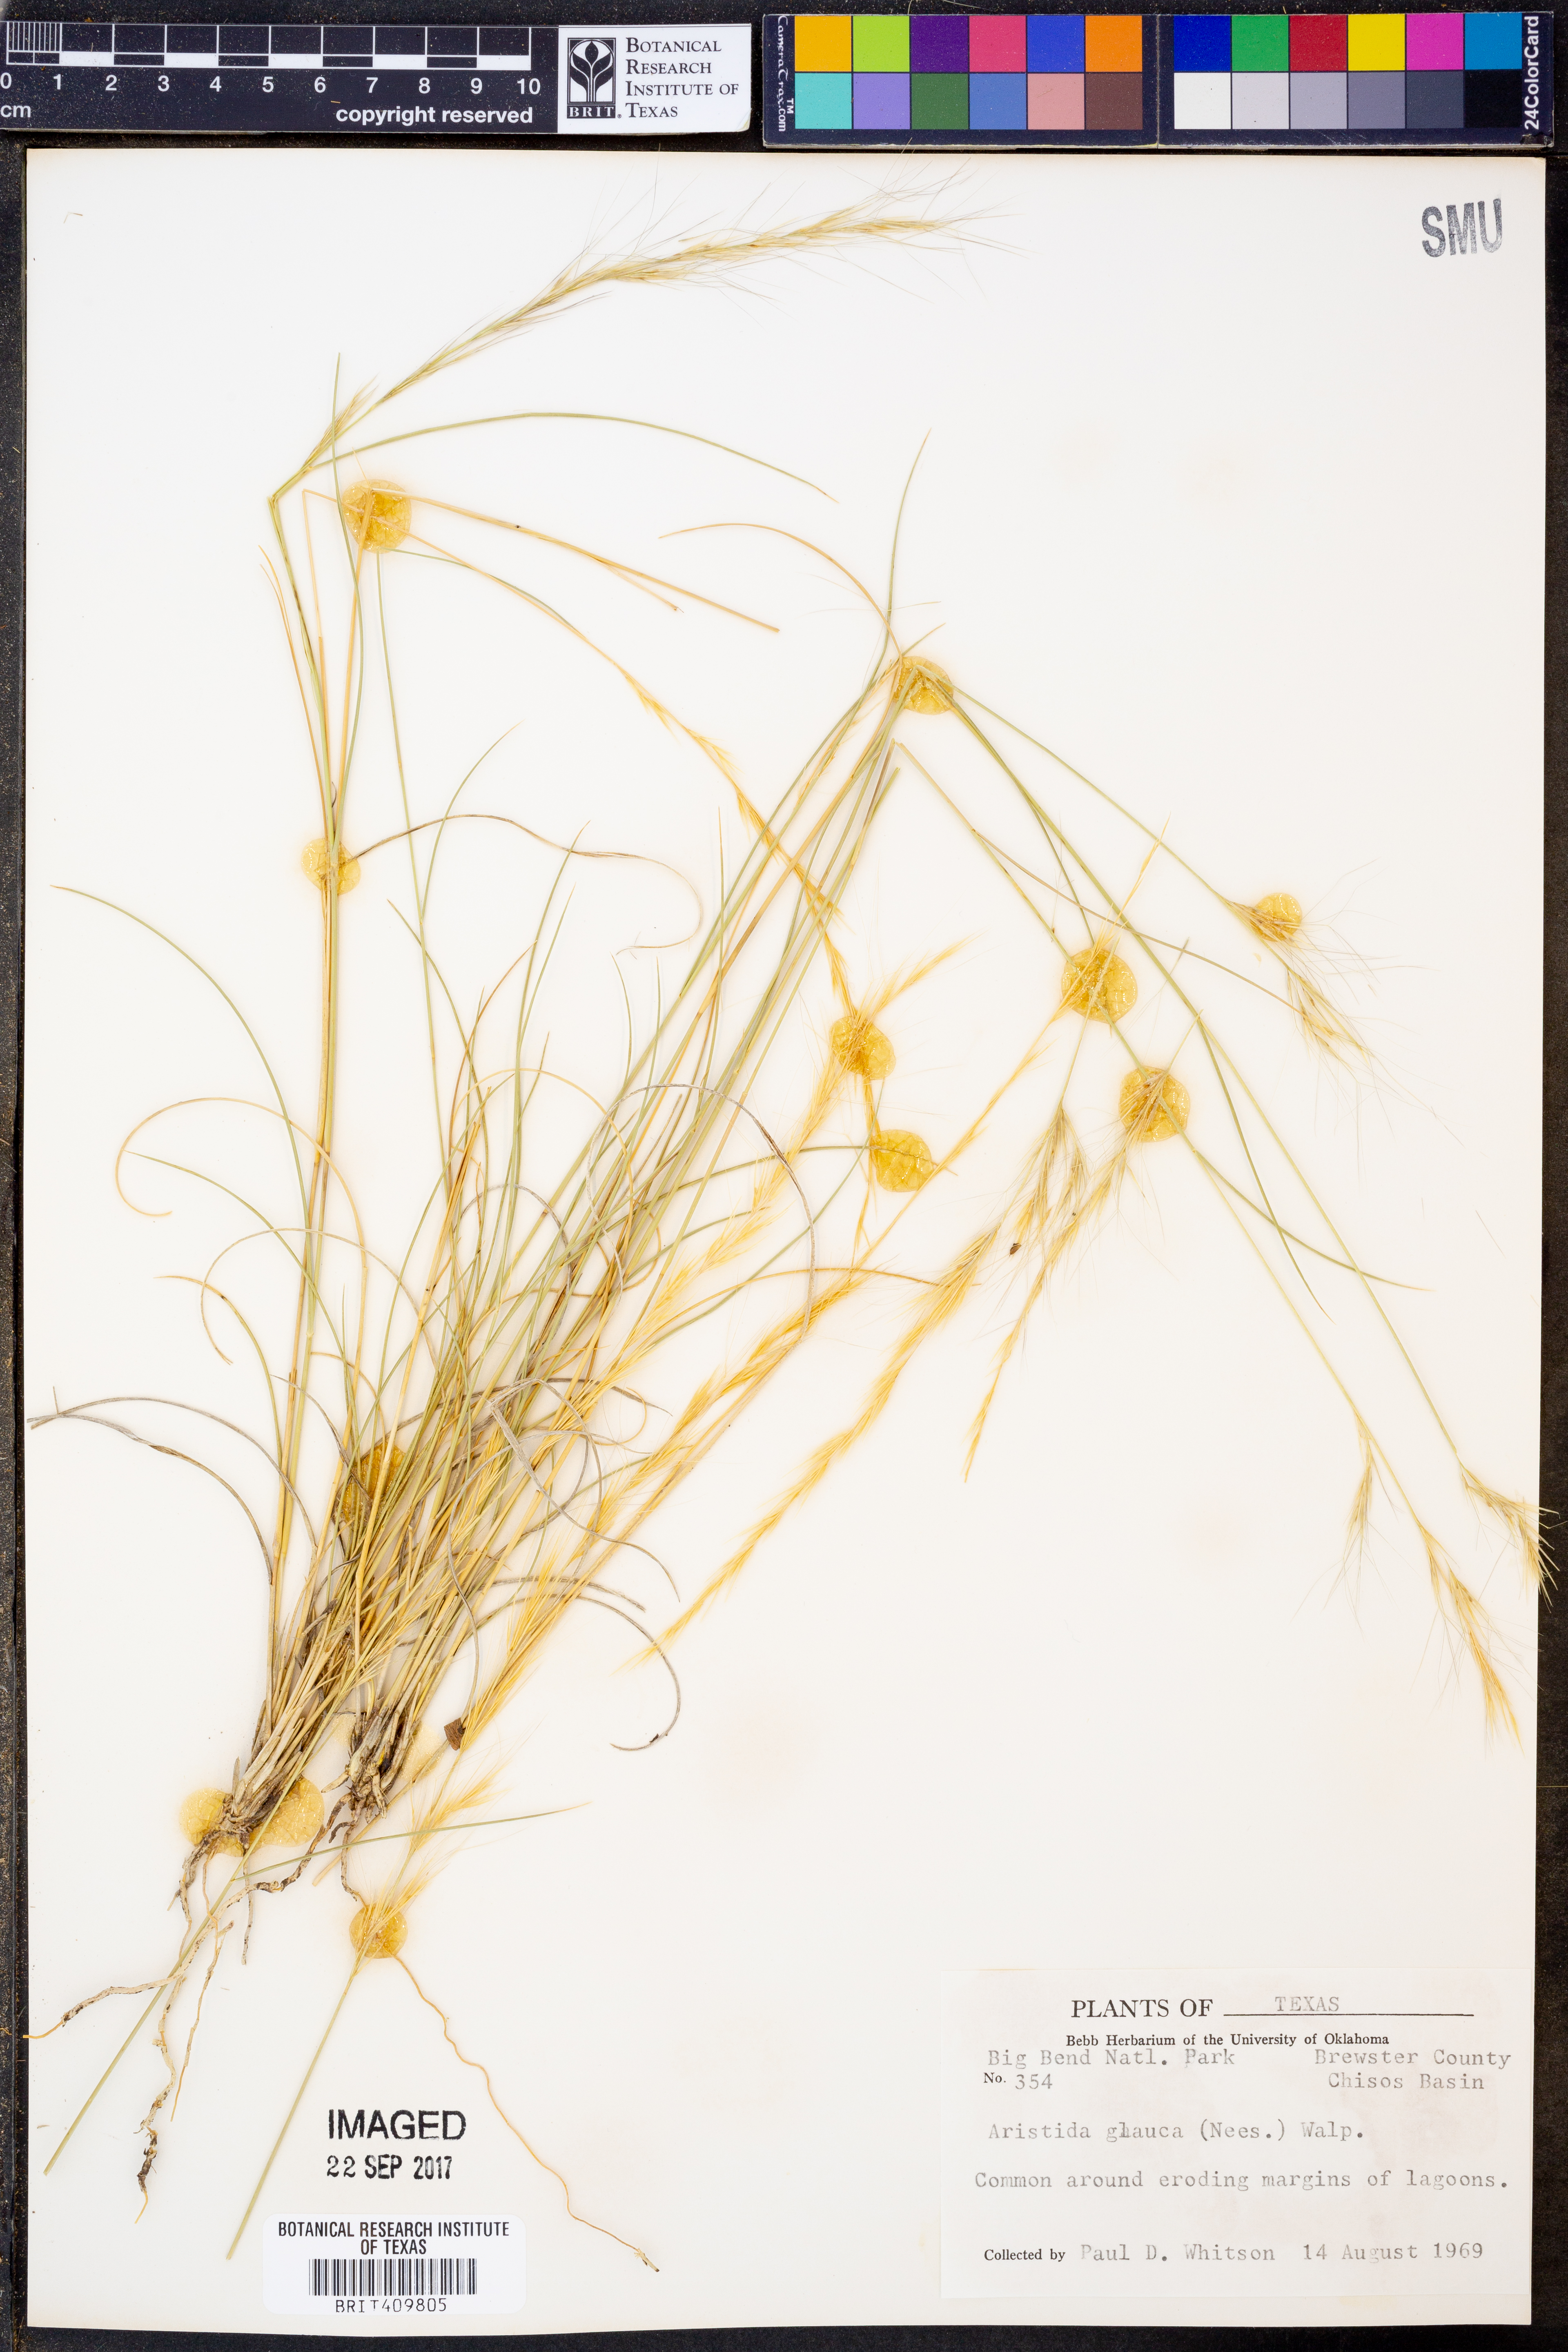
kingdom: Plantae
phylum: Tracheophyta
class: Liliopsida
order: Poales
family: Poaceae
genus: Aristida
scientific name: Aristida glauca
